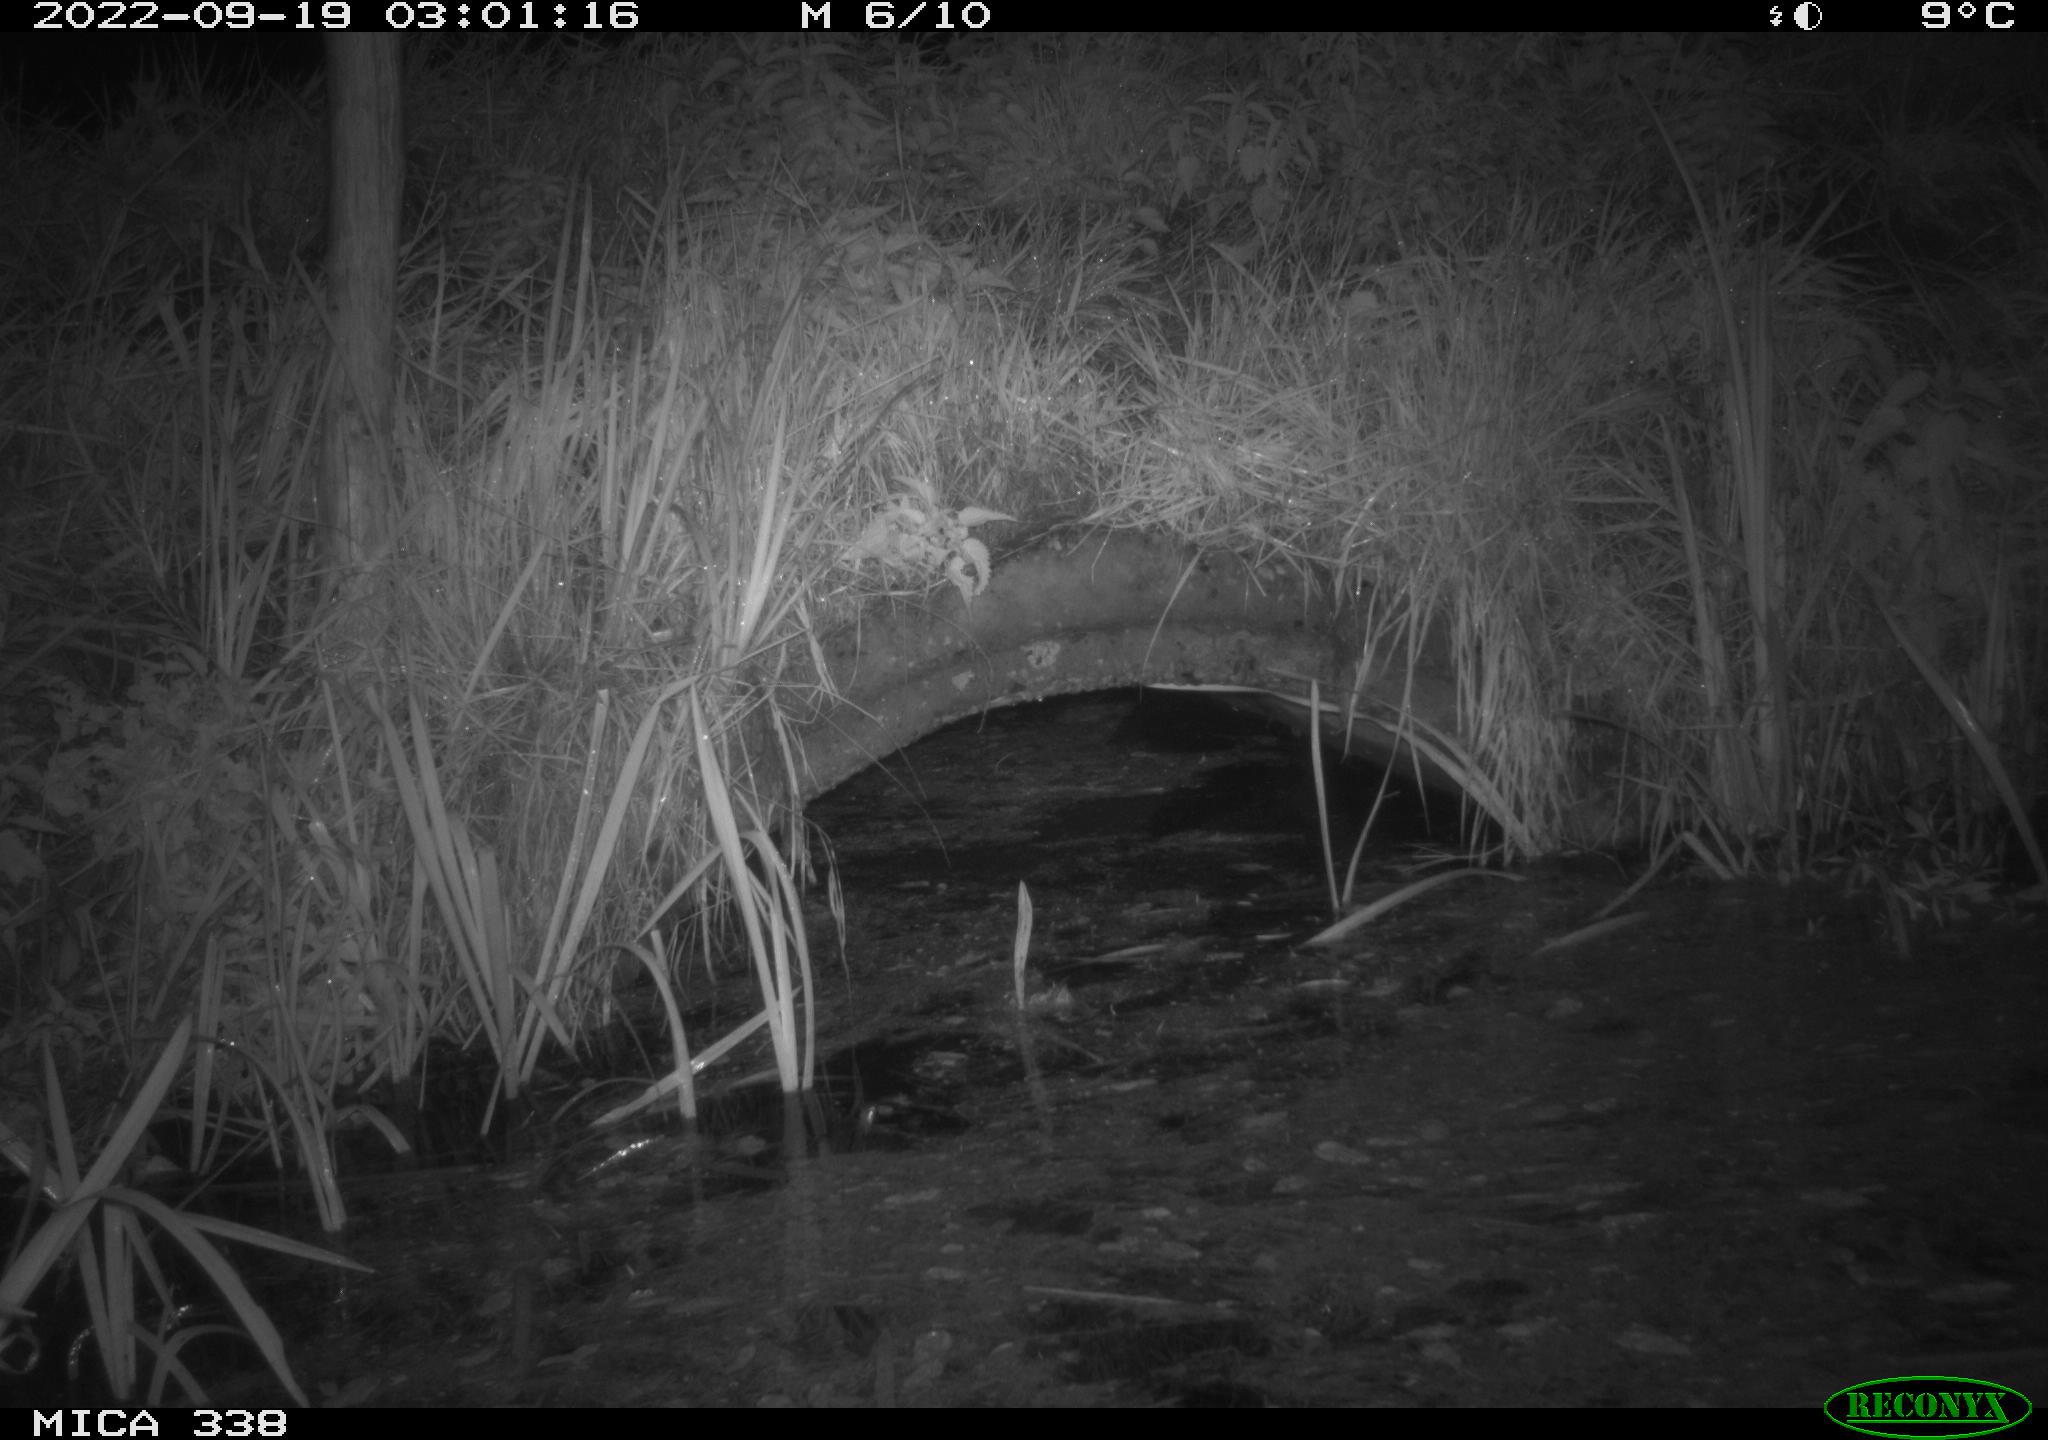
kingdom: Animalia
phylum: Chordata
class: Mammalia
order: Rodentia
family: Muridae
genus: Rattus
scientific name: Rattus norvegicus
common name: Brown rat
